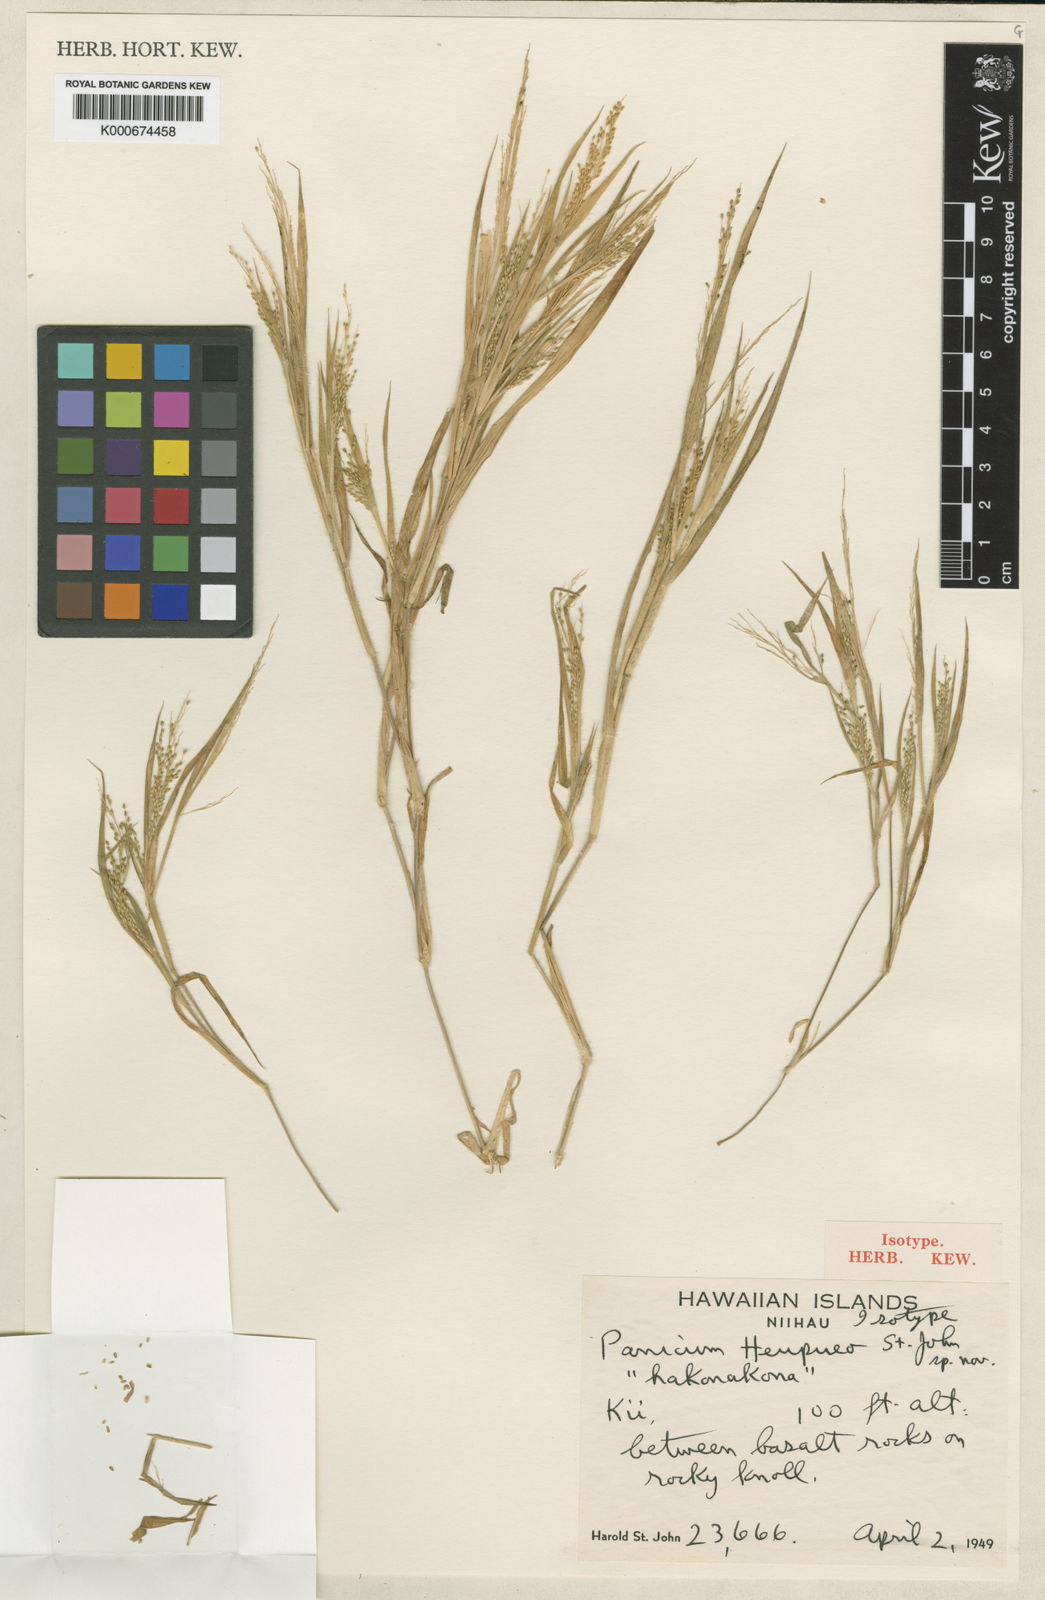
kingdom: Plantae
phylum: Tracheophyta
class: Liliopsida
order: Poales
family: Poaceae
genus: Panicum
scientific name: Panicum xerophilum
